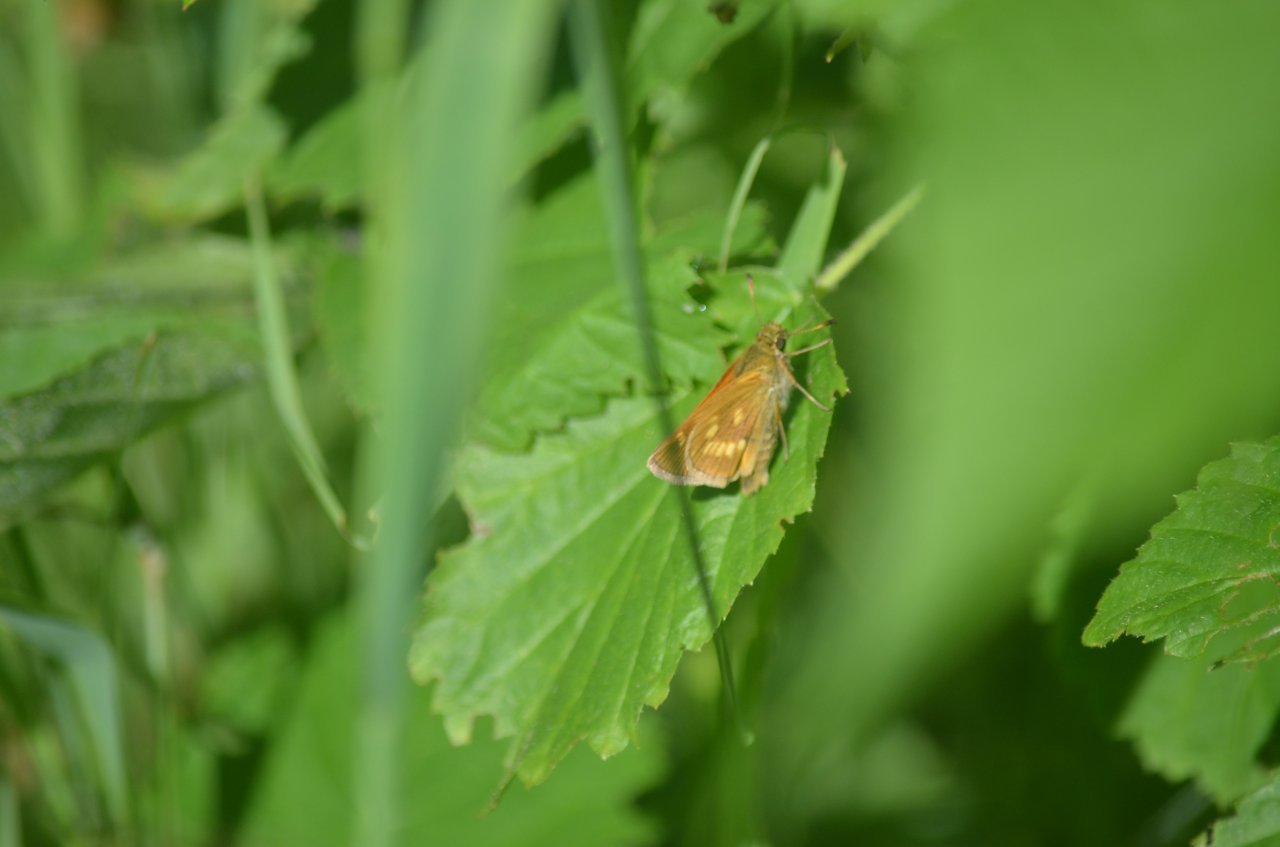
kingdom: Animalia
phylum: Arthropoda
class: Insecta
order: Lepidoptera
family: Hesperiidae
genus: Polites
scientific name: Polites
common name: Long Dash Skipper
